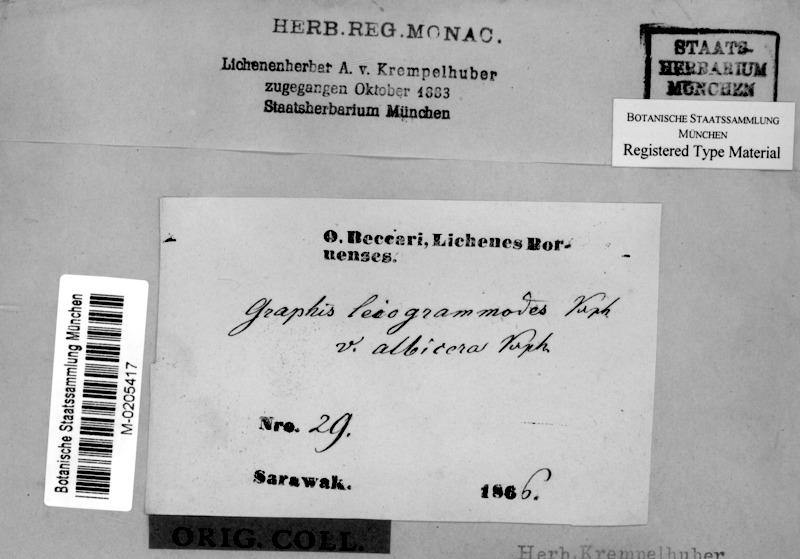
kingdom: Fungi
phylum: Ascomycota
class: Lecanoromycetes
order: Ostropales
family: Graphidaceae
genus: Phaeographis
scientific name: Phaeographis leiogrammodes
